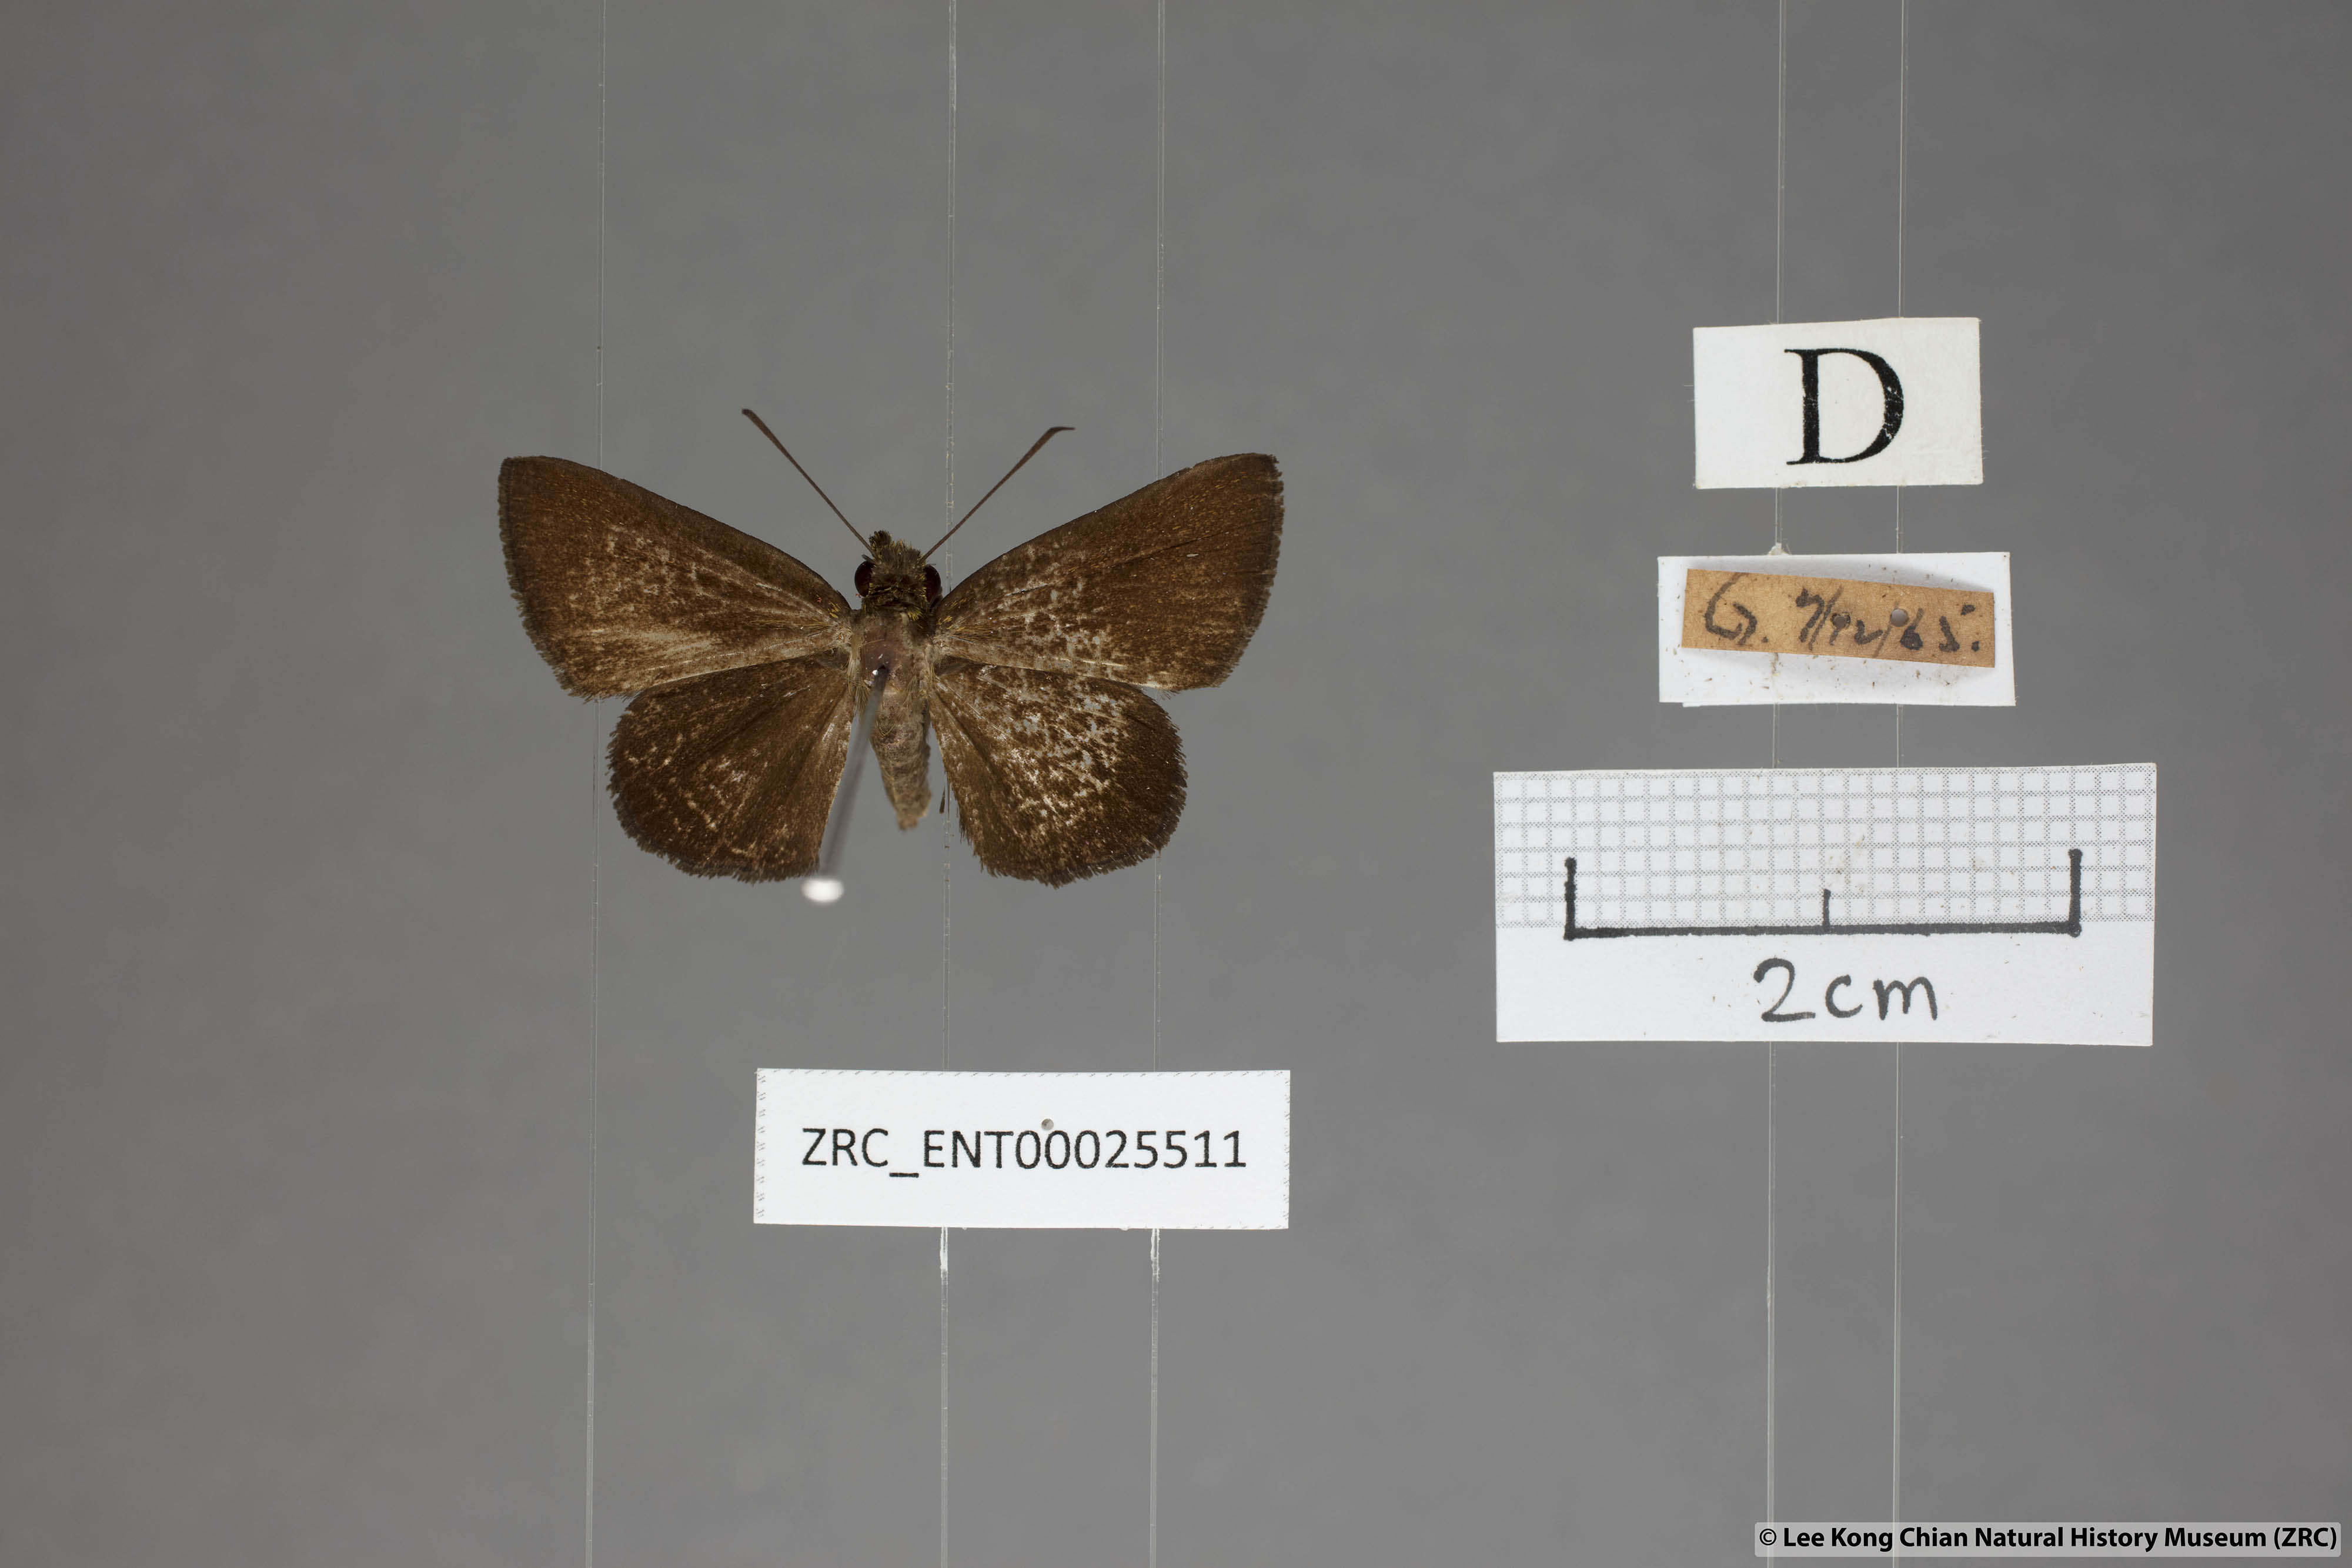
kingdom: Animalia
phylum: Arthropoda
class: Insecta
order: Lepidoptera
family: Hesperiidae
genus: Psolos
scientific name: Psolos fuligo
